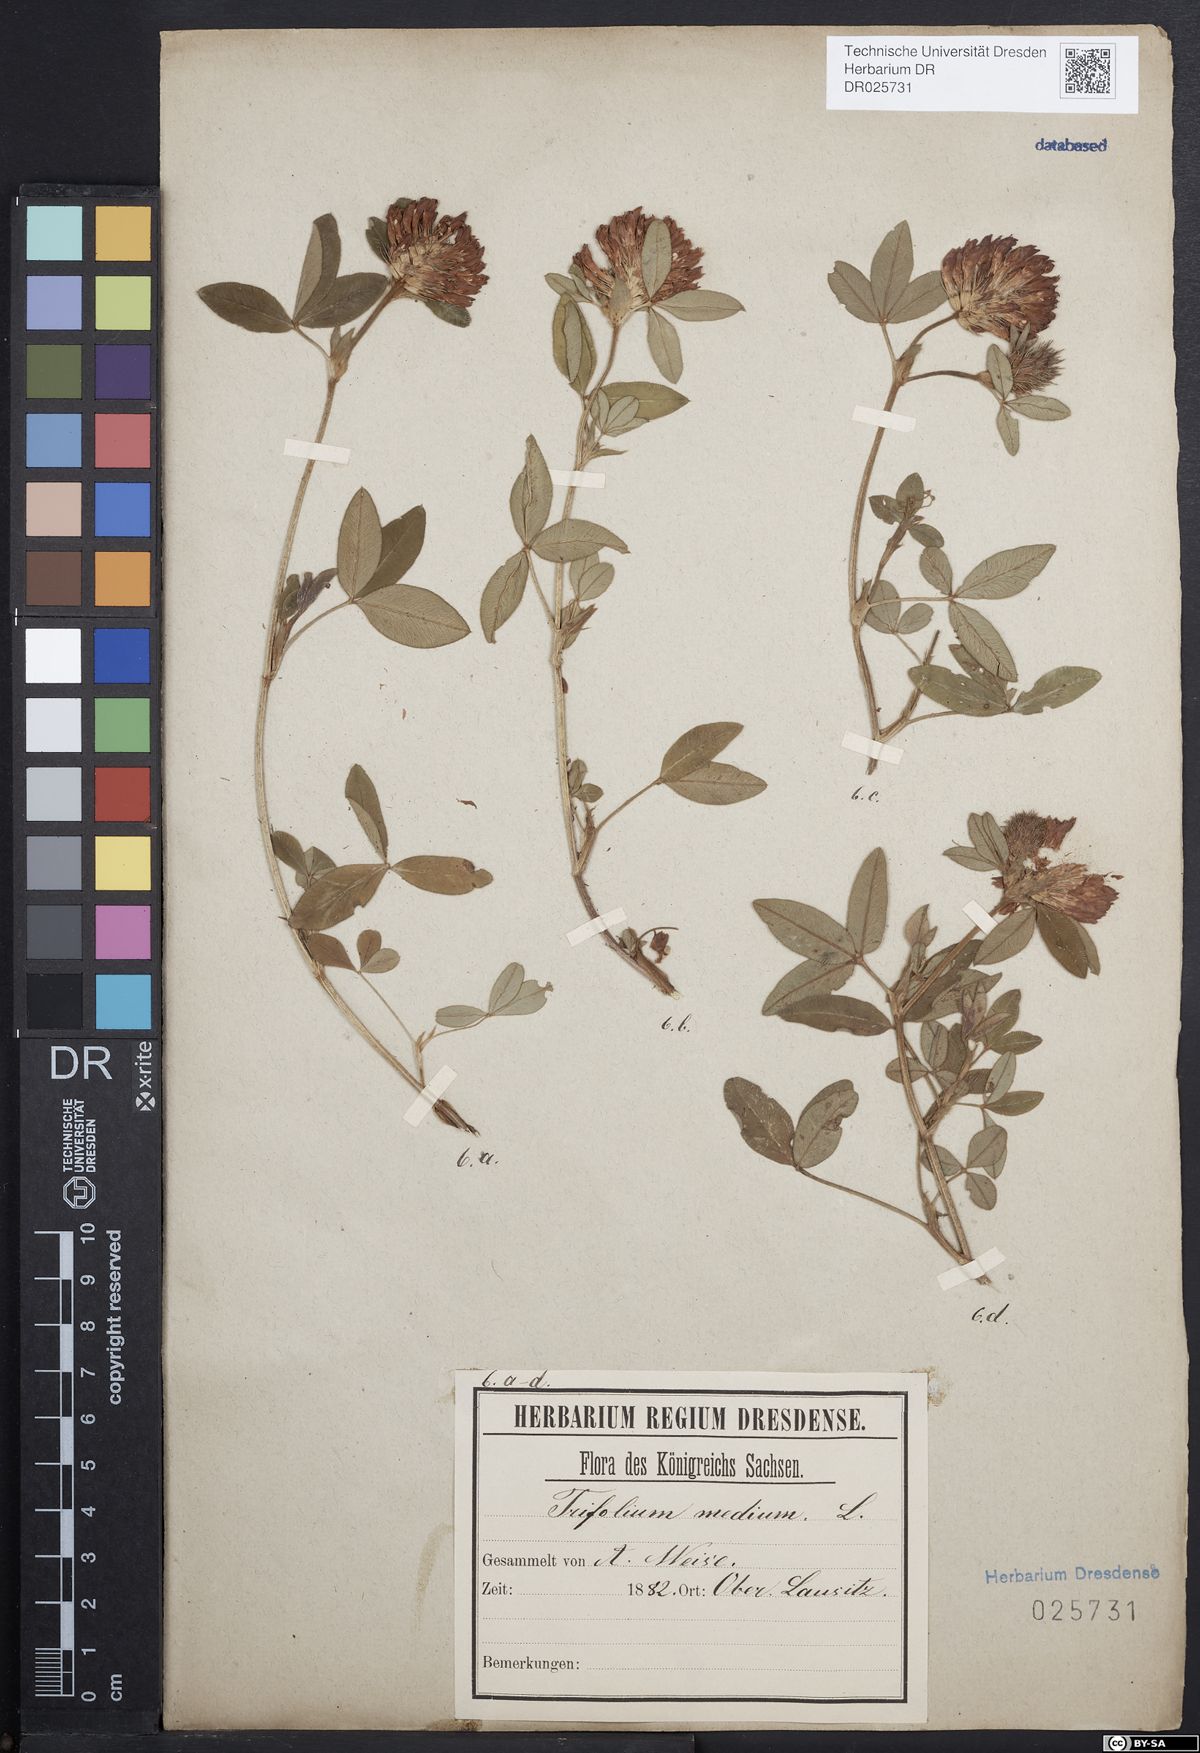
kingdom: Plantae
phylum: Tracheophyta
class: Magnoliopsida
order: Fabales
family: Fabaceae
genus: Trifolium
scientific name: Trifolium medium
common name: Zigzag clover
